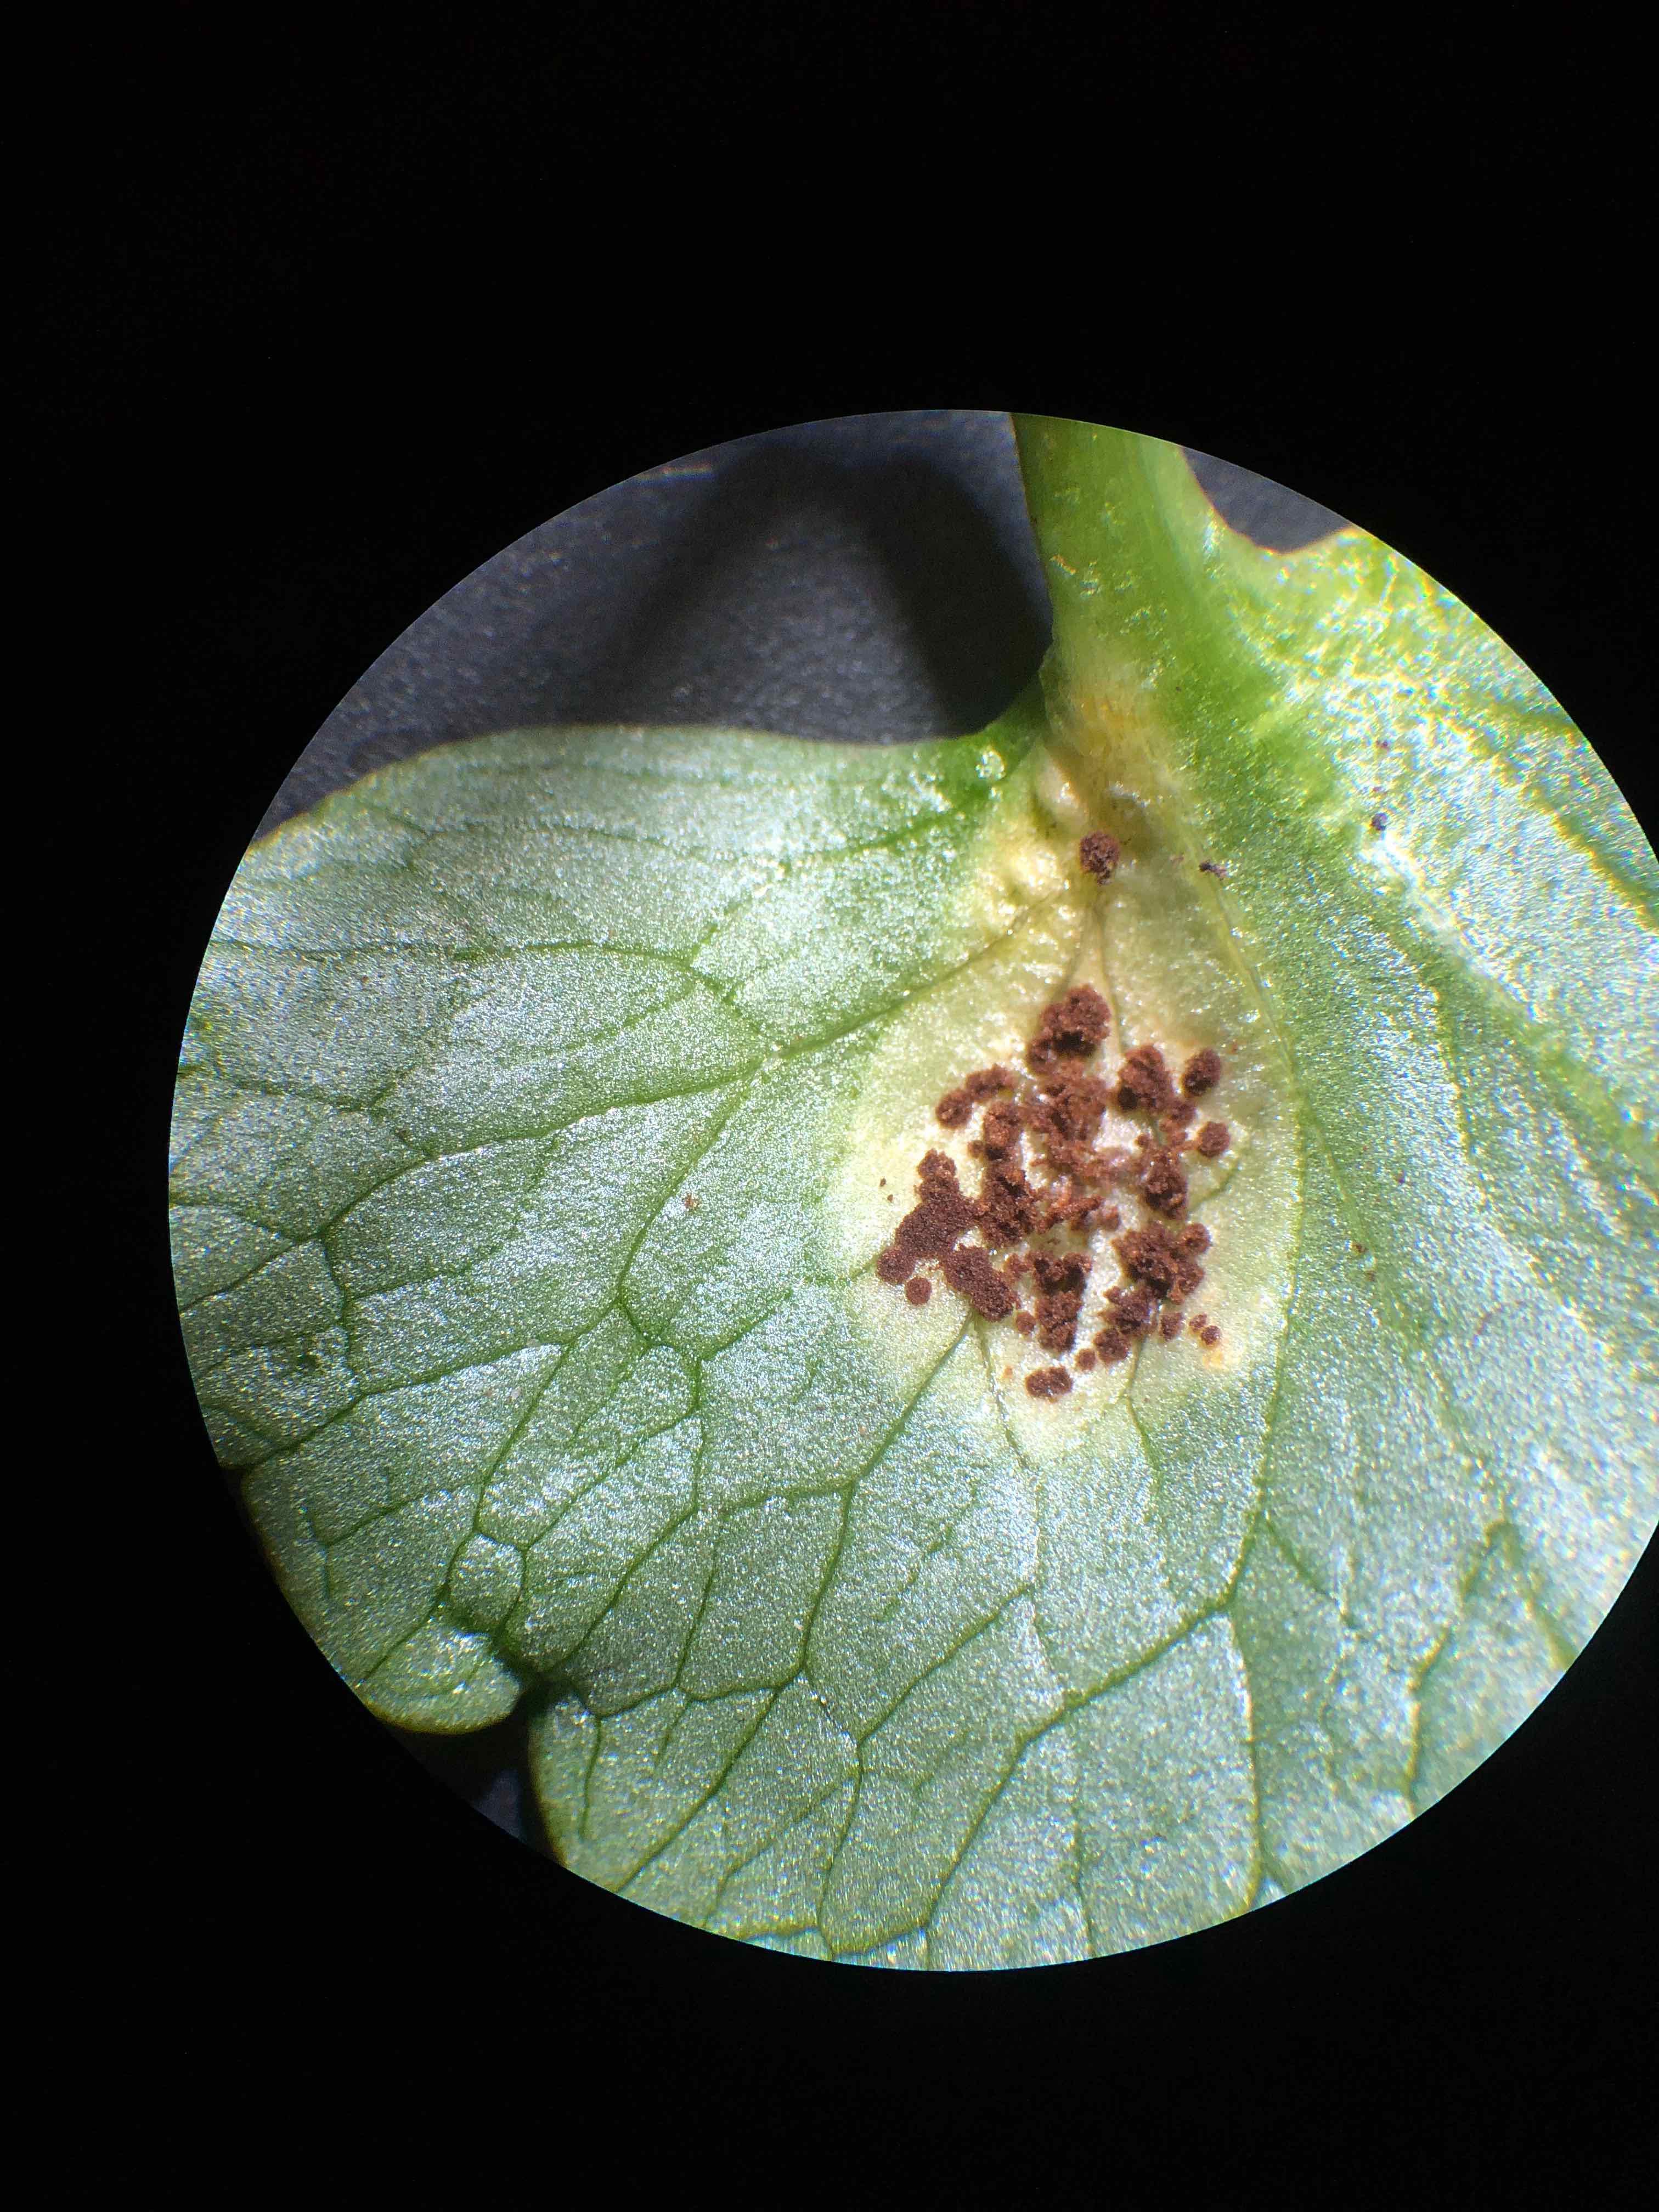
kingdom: Fungi
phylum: Basidiomycota
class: Pucciniomycetes
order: Pucciniales
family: Pucciniaceae
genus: Uromyces
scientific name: Uromyces ficariae
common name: vorterod-encellerust
